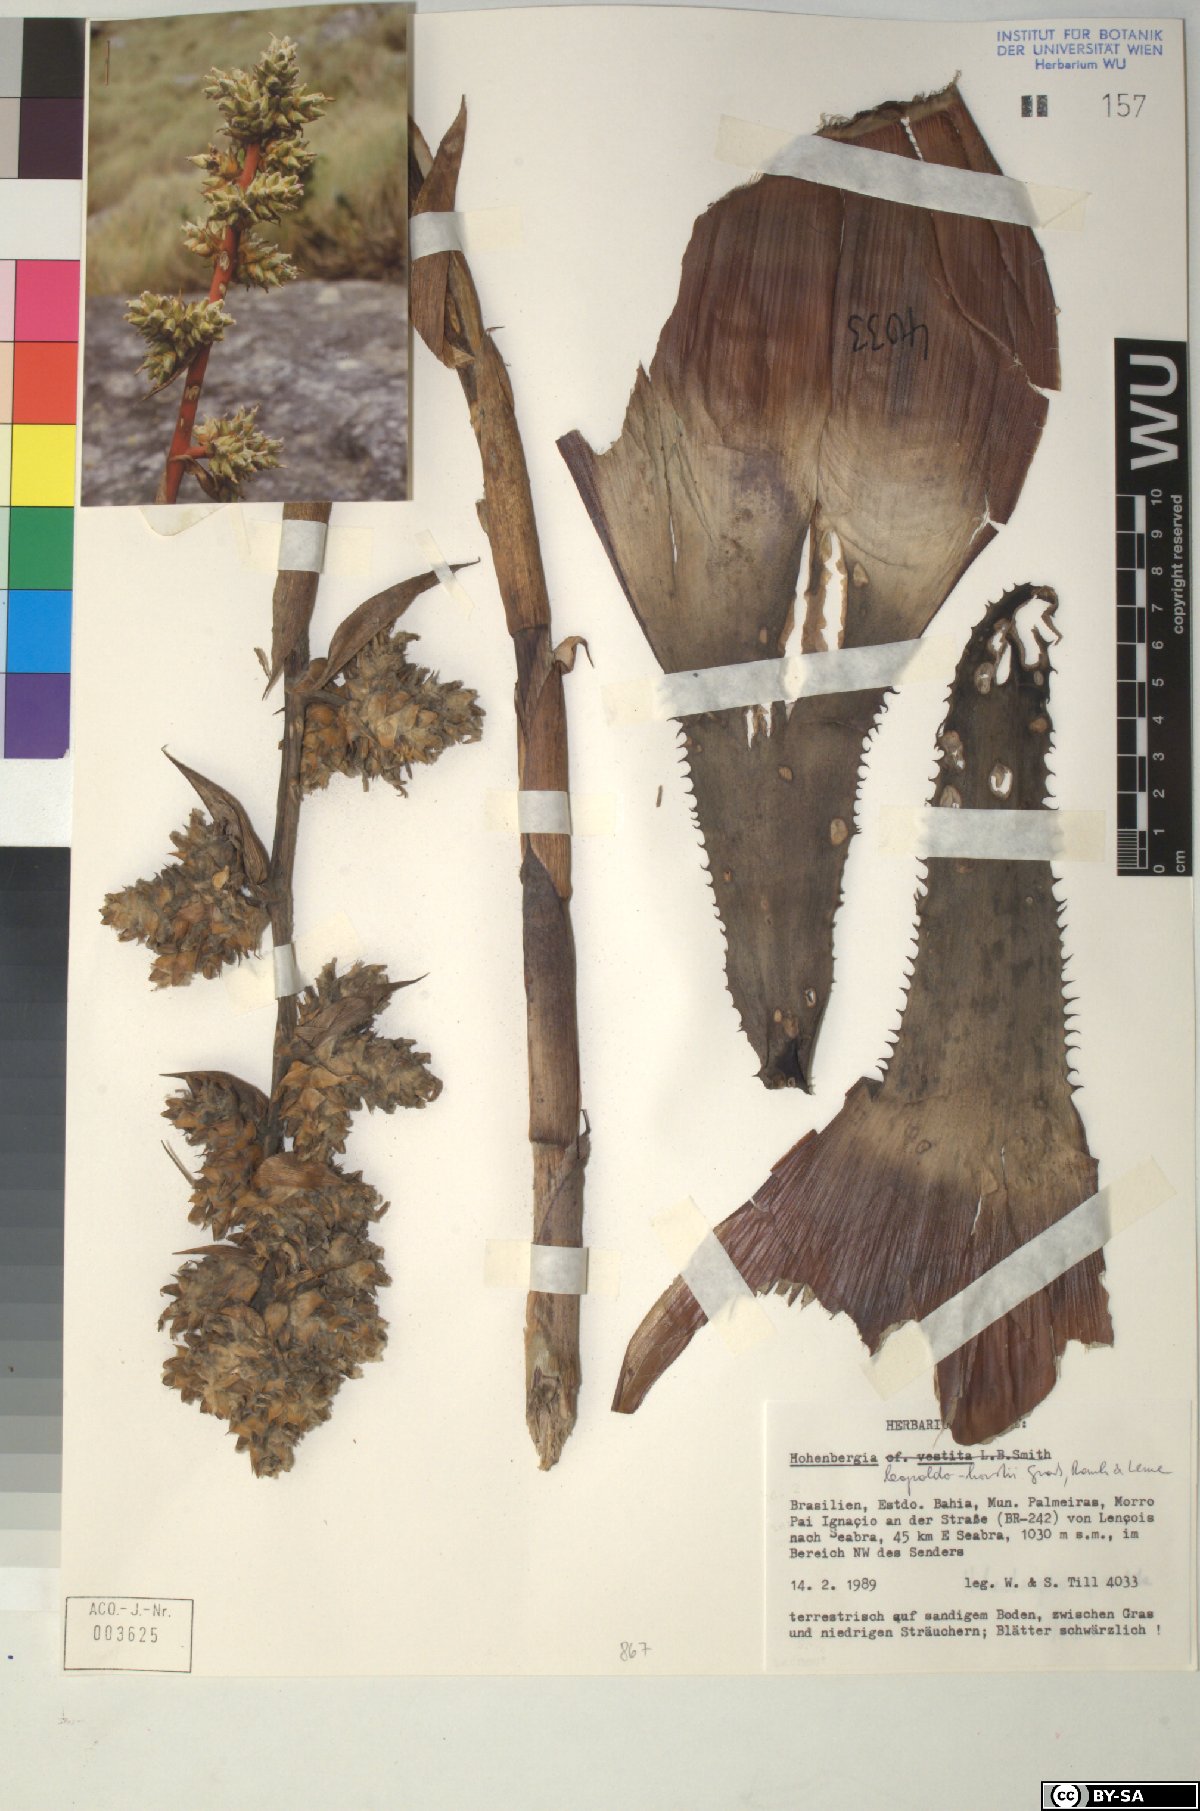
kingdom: Plantae
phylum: Tracheophyta
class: Liliopsida
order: Poales
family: Bromeliaceae
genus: Hohenbergia
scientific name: Hohenbergia
